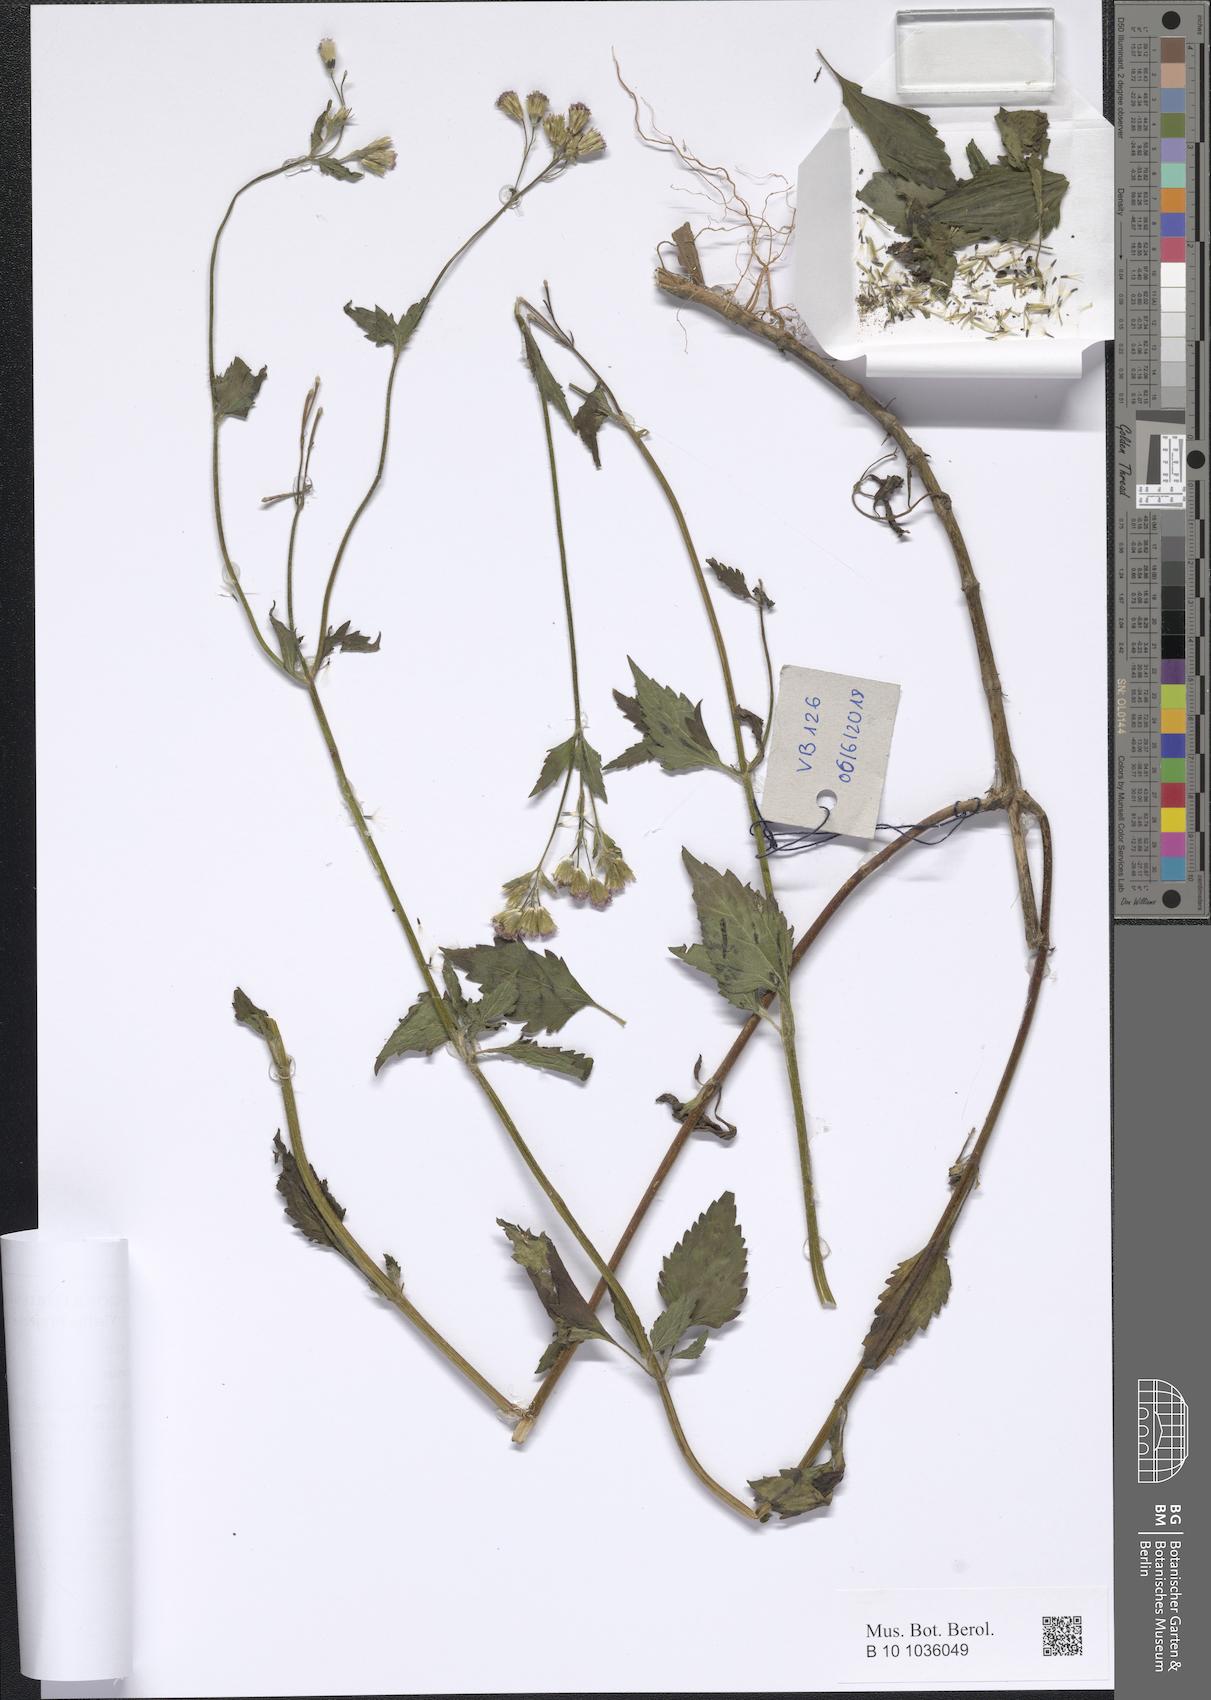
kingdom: Plantae
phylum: Tracheophyta
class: Magnoliopsida
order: Asterales
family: Asteraceae
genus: Praxelis
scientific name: Praxelis clematidea
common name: Praxelis
